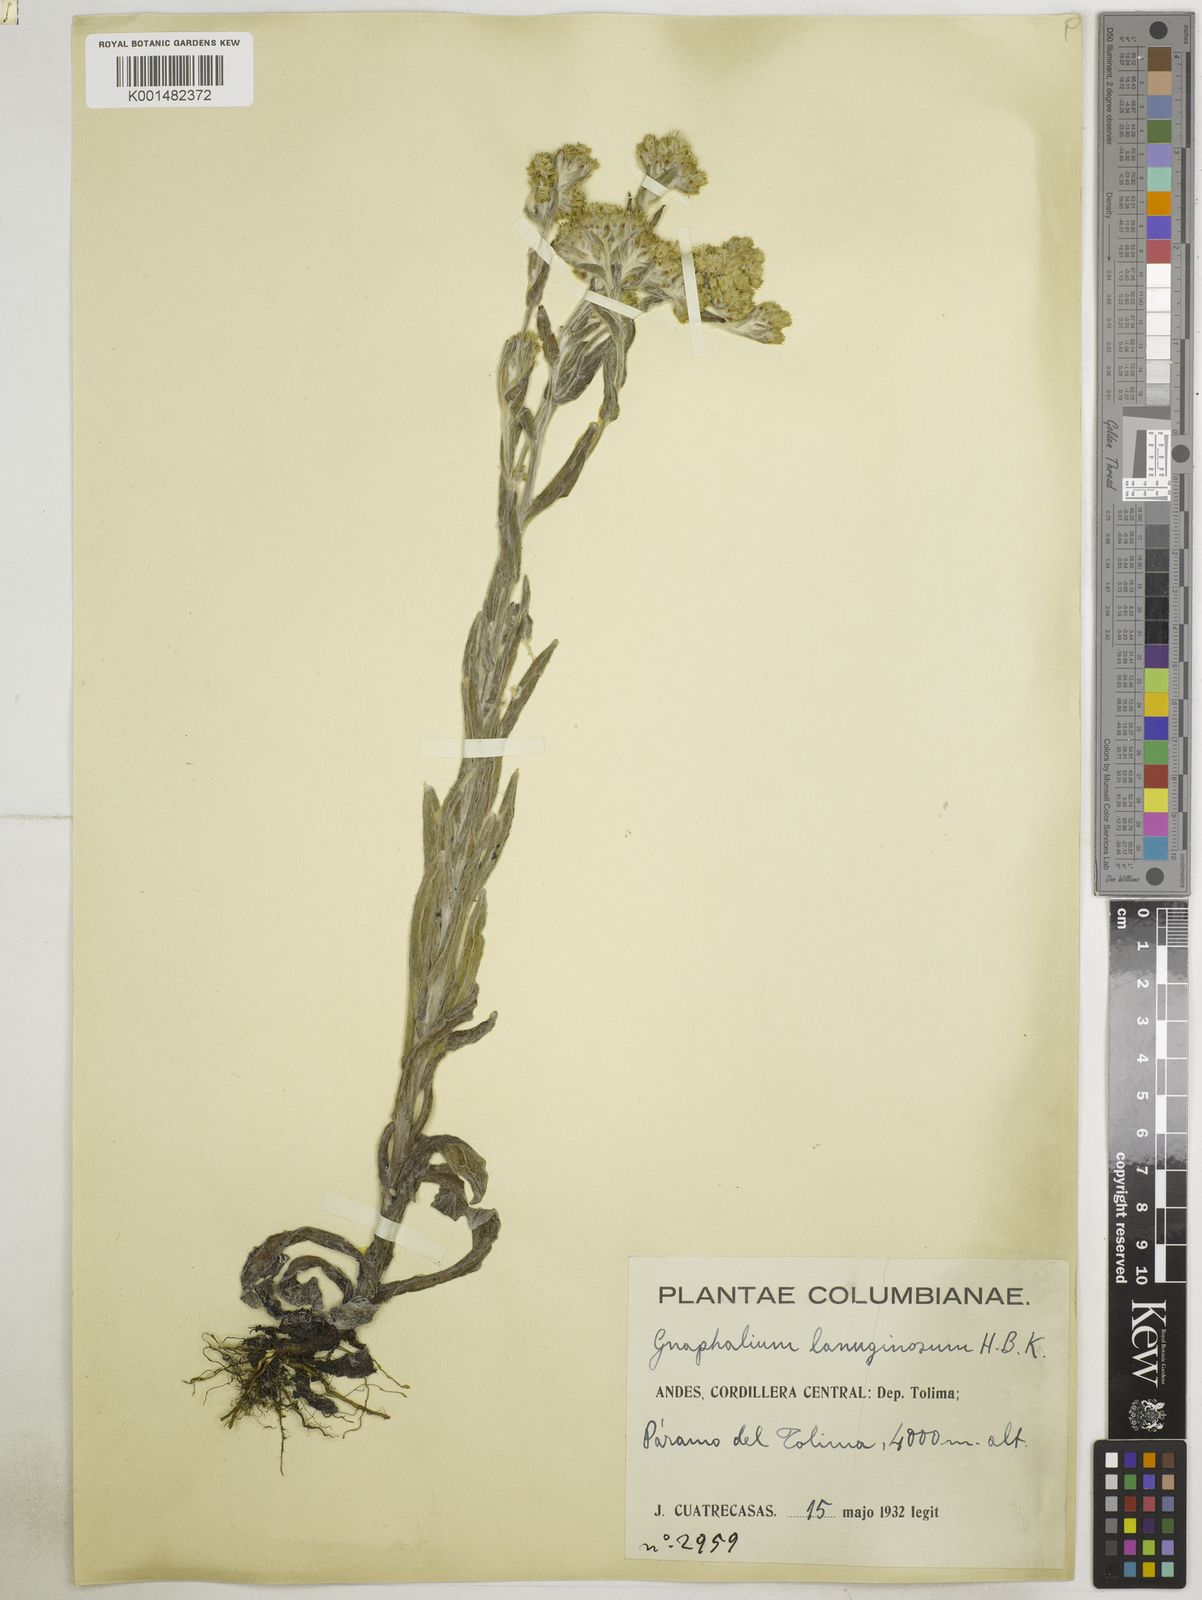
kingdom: Plantae
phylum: Tracheophyta
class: Magnoliopsida
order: Asterales
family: Asteraceae
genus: Pseudognaphalium
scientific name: Pseudognaphalium lanuginosum
